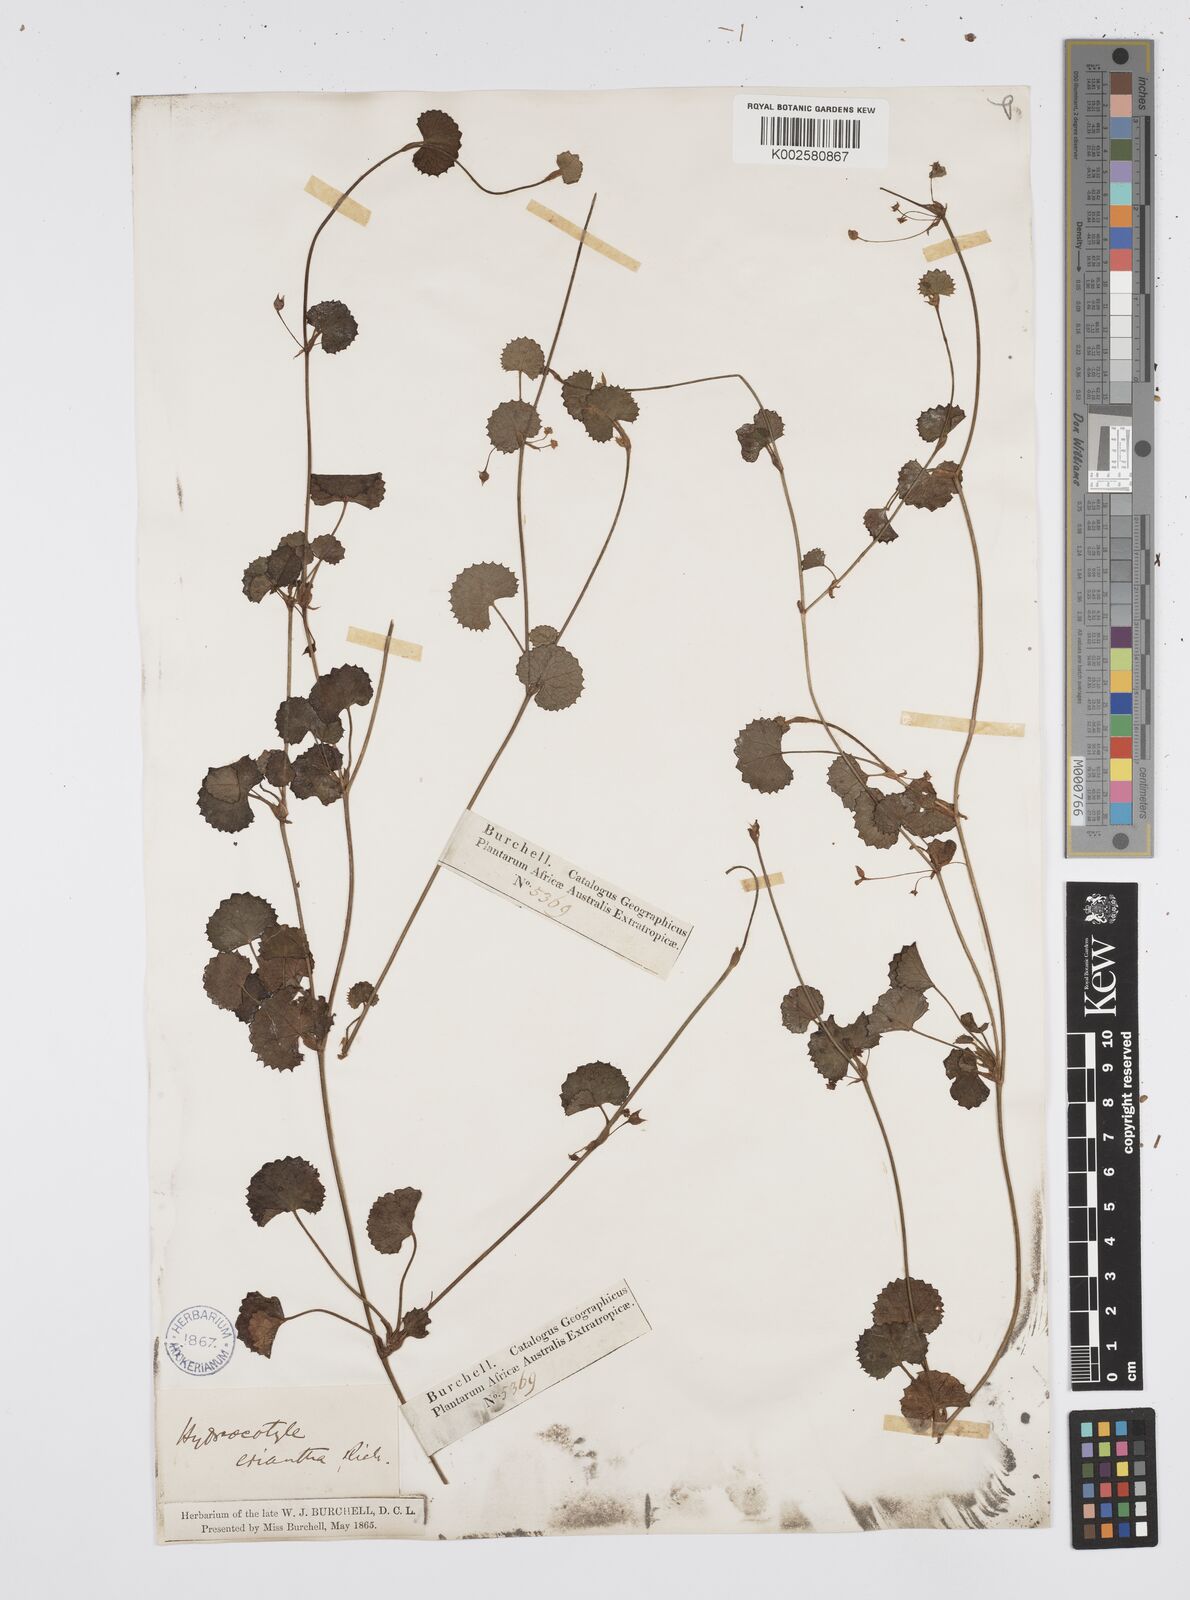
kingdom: Plantae
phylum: Tracheophyta
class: Magnoliopsida
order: Apiales
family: Apiaceae
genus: Centella
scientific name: Centella eriantha
